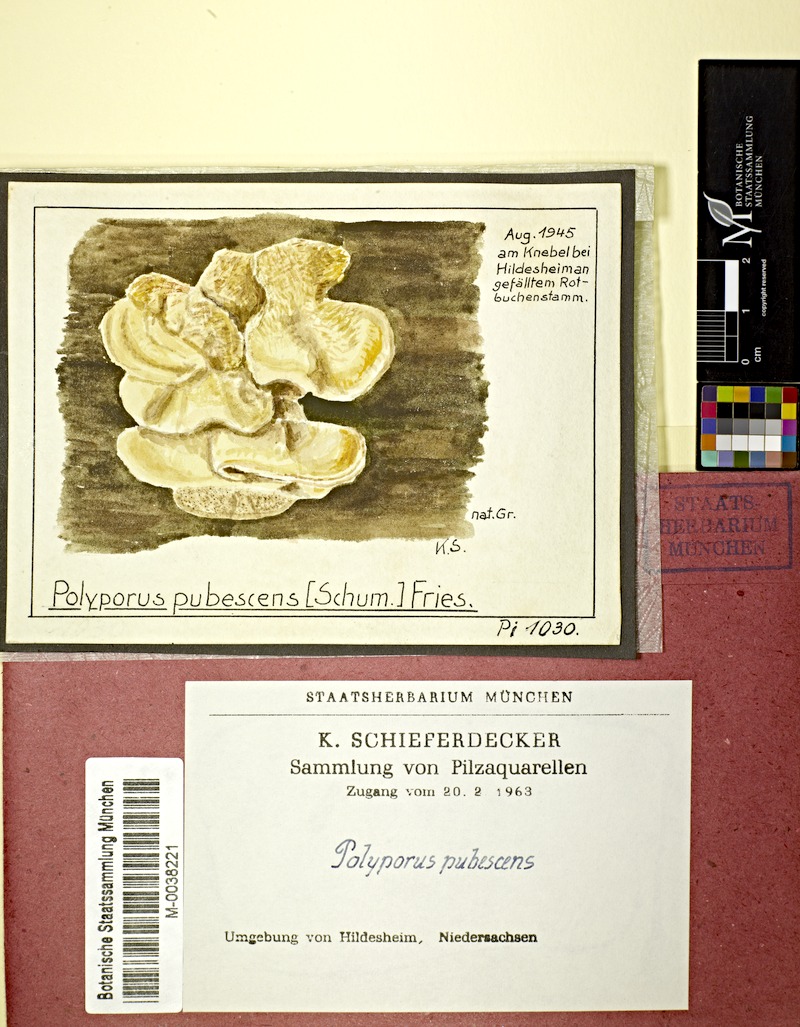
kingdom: Fungi
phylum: Basidiomycota
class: Agaricomycetes
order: Polyporales
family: Polyporaceae
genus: Trametes
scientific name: Trametes pubescens
